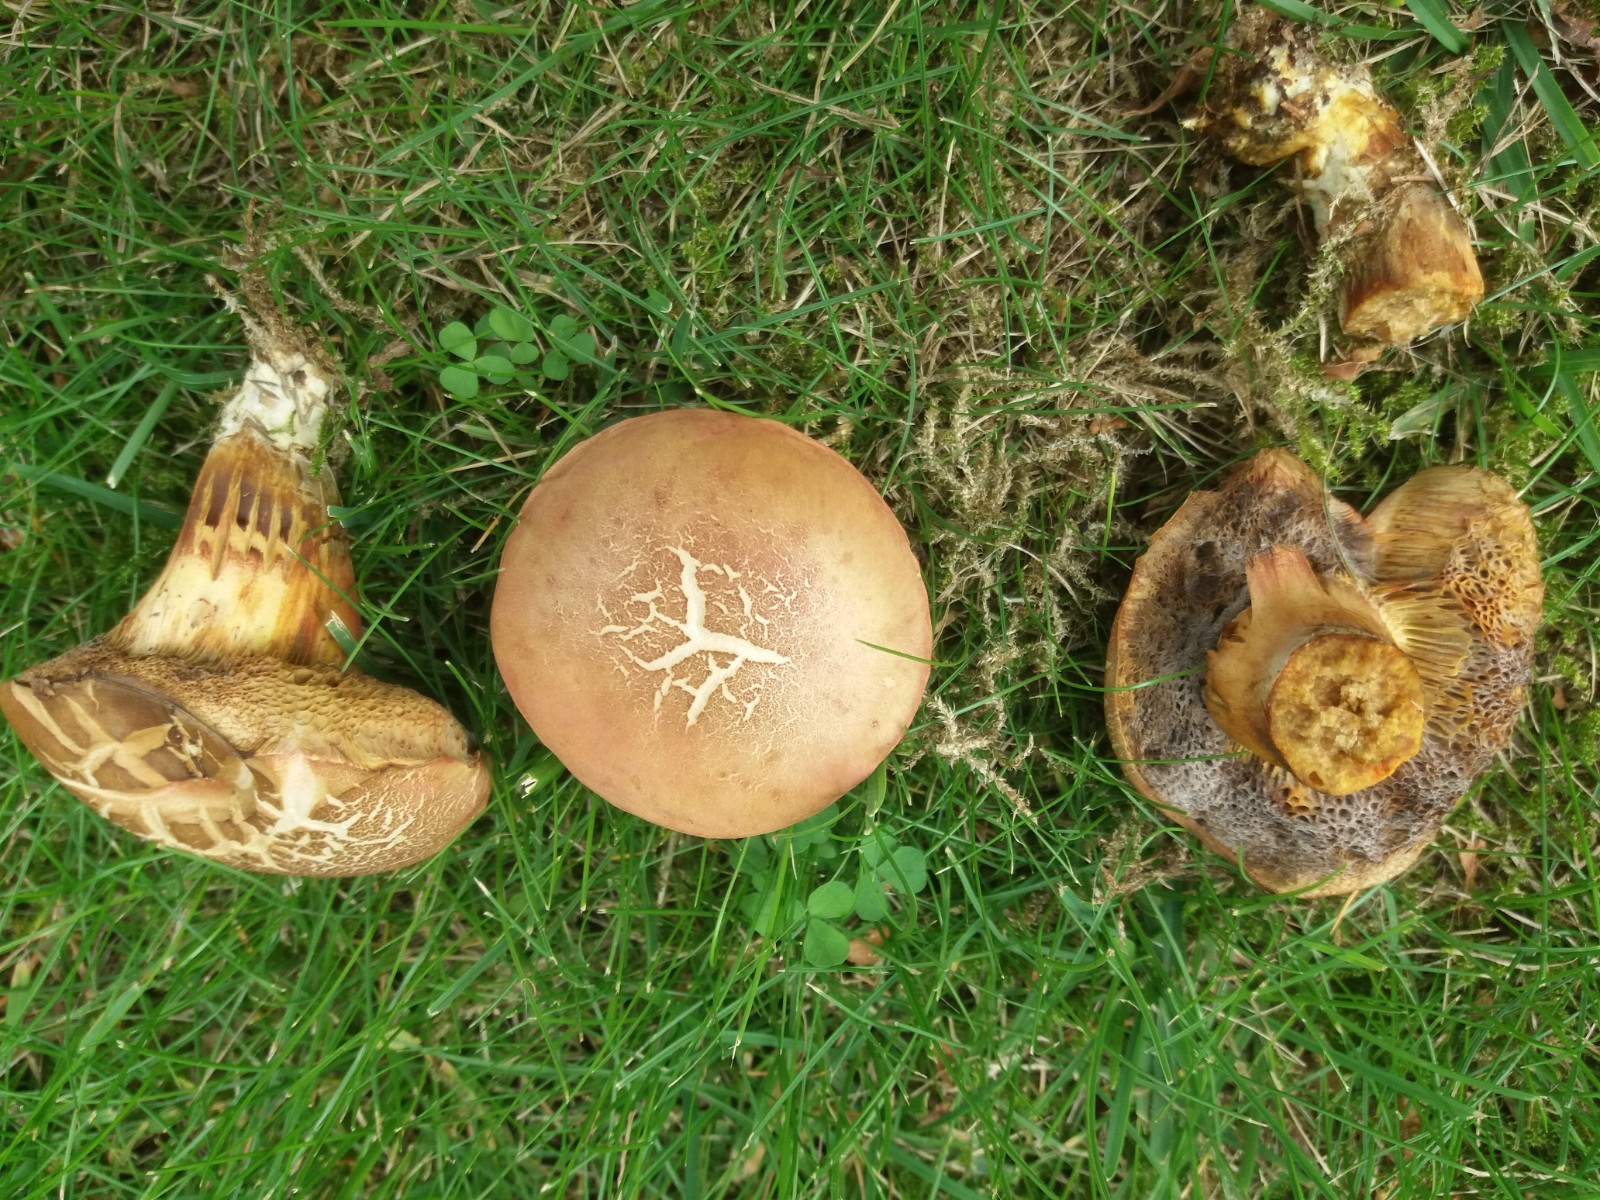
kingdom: Fungi
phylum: Basidiomycota
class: Agaricomycetes
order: Boletales
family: Boletaceae
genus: Hortiboletus
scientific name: Hortiboletus rubellus
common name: blodrød rørhat
